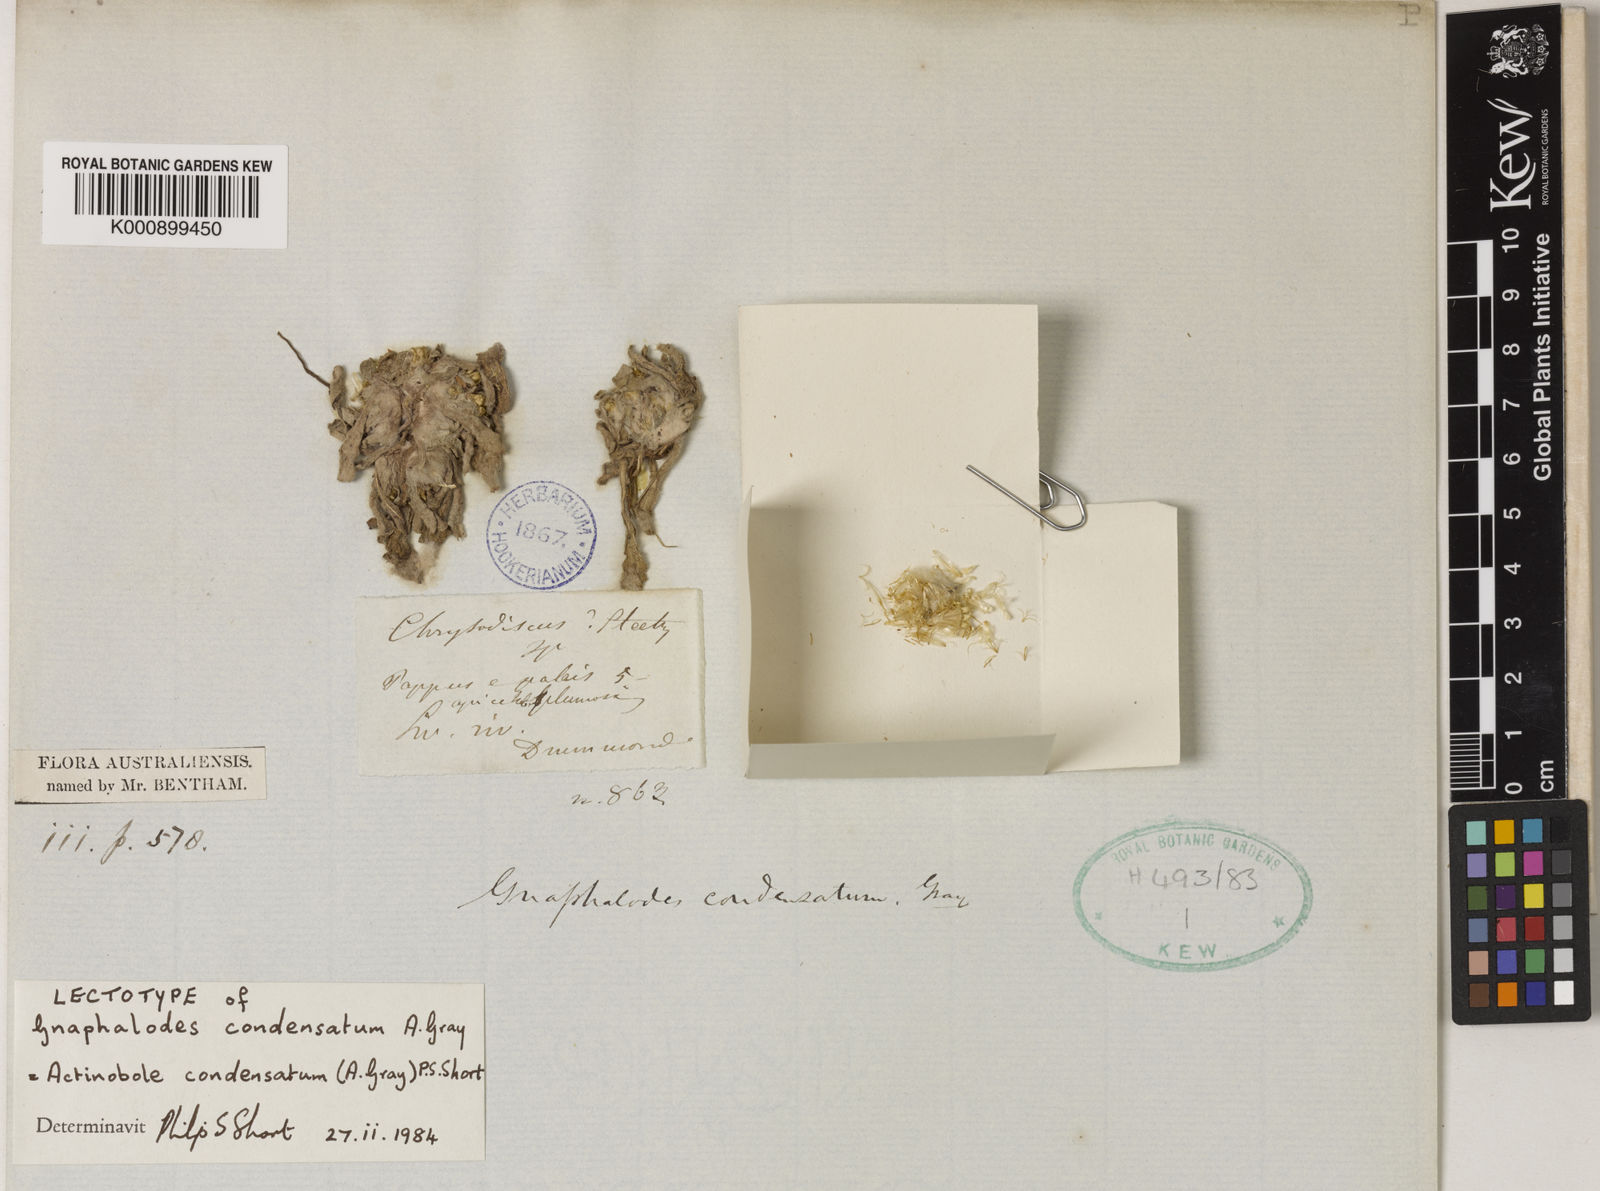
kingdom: Plantae
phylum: Tracheophyta
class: Magnoliopsida
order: Asterales
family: Asteraceae
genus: Actinobole
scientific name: Actinobole condensatum
